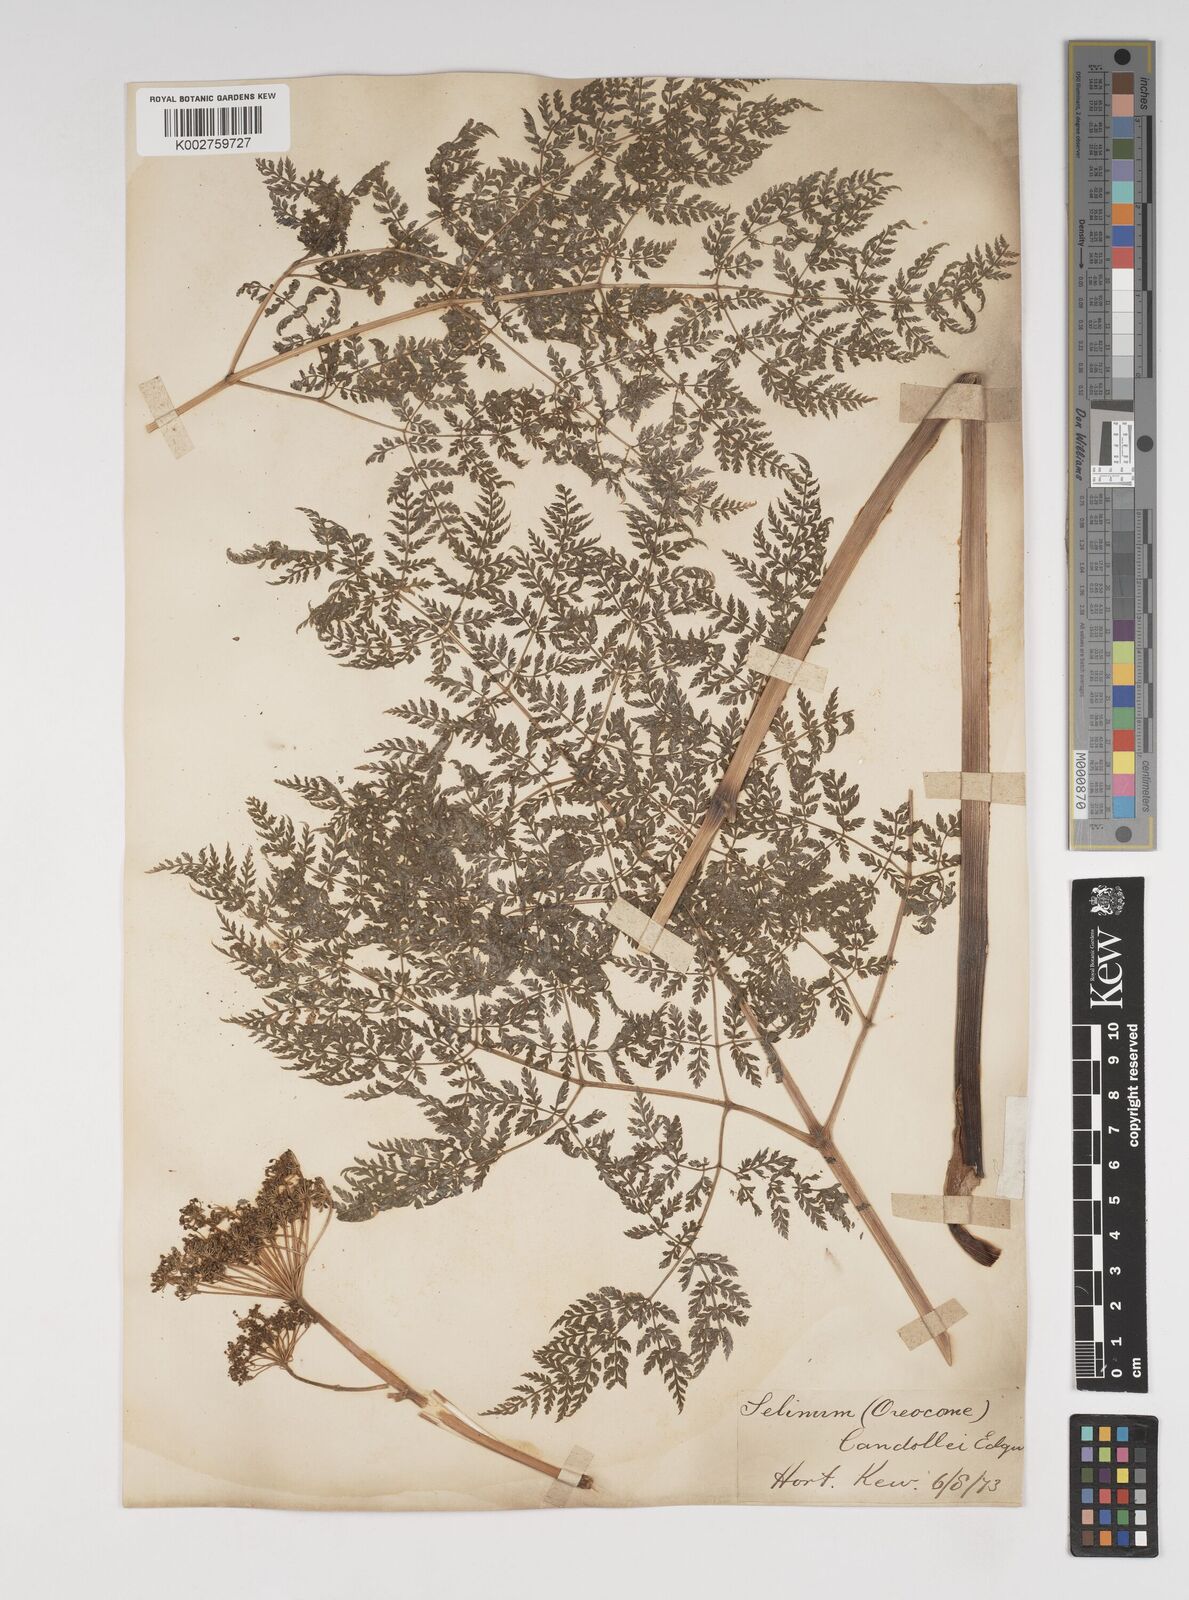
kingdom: Plantae
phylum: Tracheophyta
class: Magnoliopsida
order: Apiales
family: Apiaceae
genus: Selinum
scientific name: Selinum carvifolia
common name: Cambridge milk-parsley
